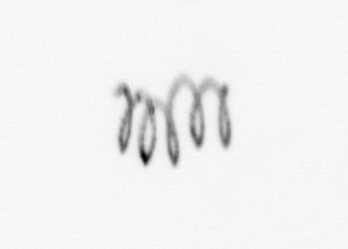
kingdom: Chromista
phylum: Ochrophyta
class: Bacillariophyceae
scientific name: Bacillariophyceae
